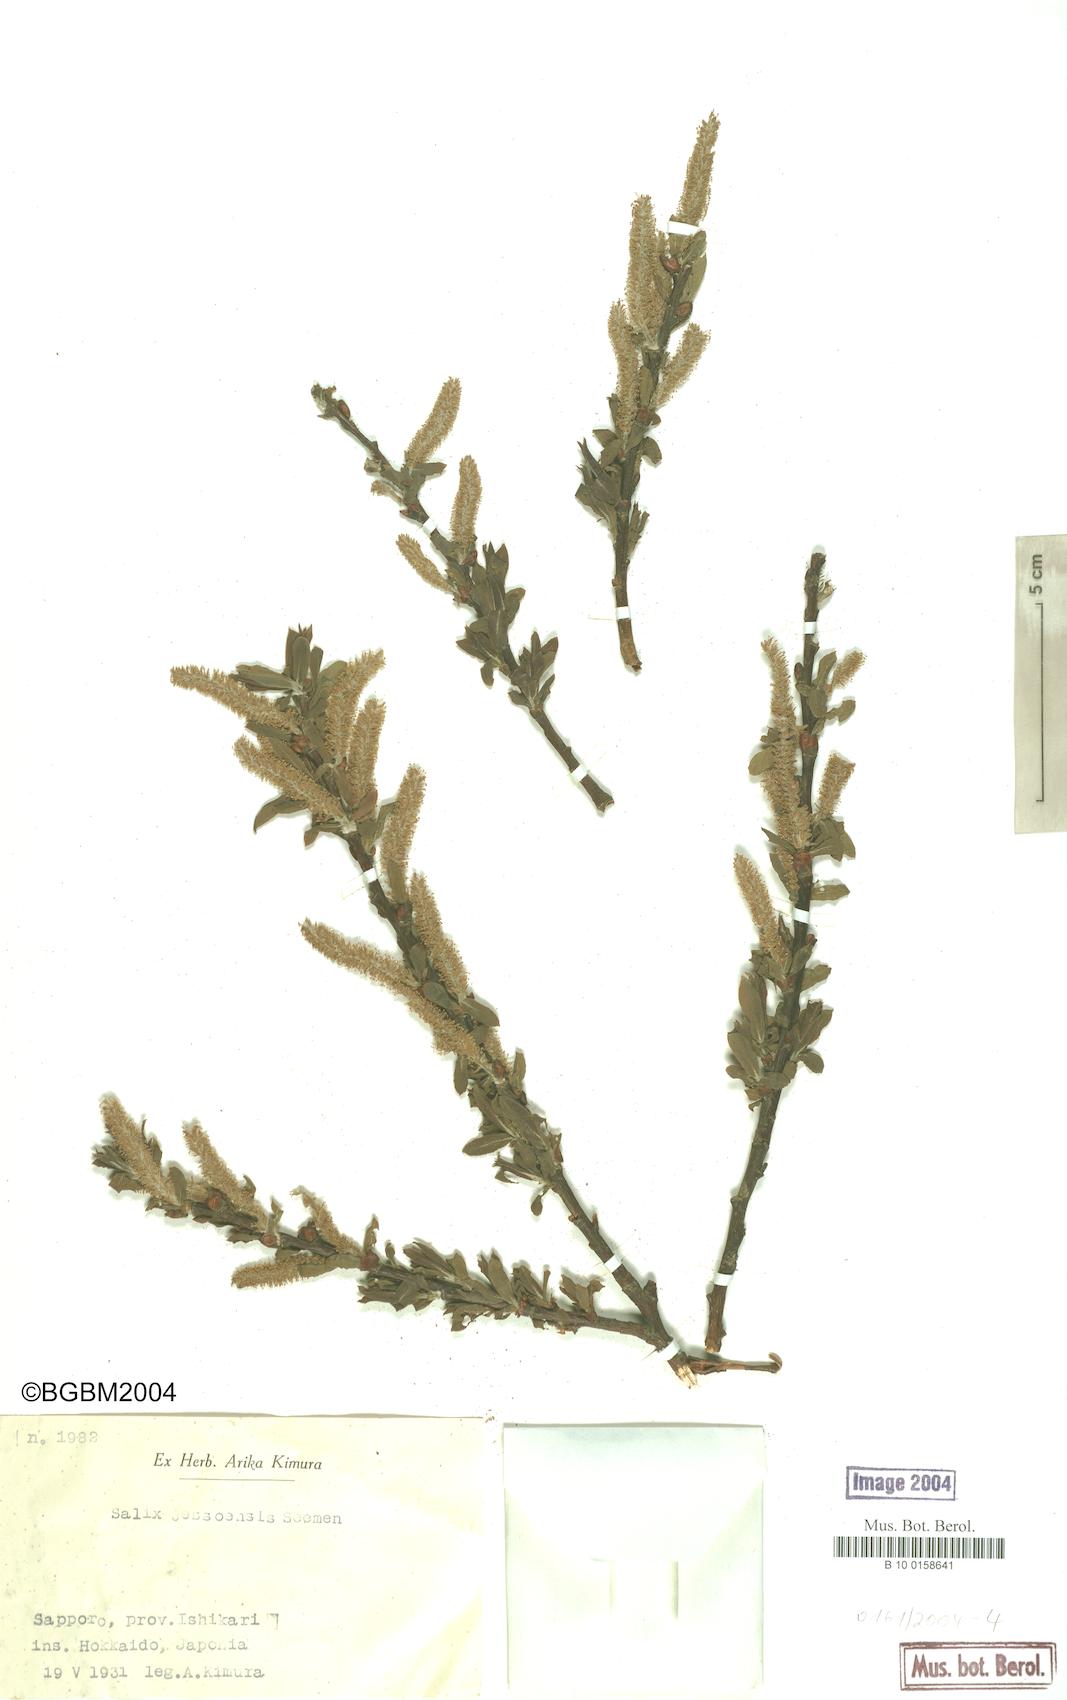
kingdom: Plantae
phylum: Tracheophyta
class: Magnoliopsida
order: Malpighiales
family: Salicaceae
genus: Salix
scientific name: Salix jessoensis
